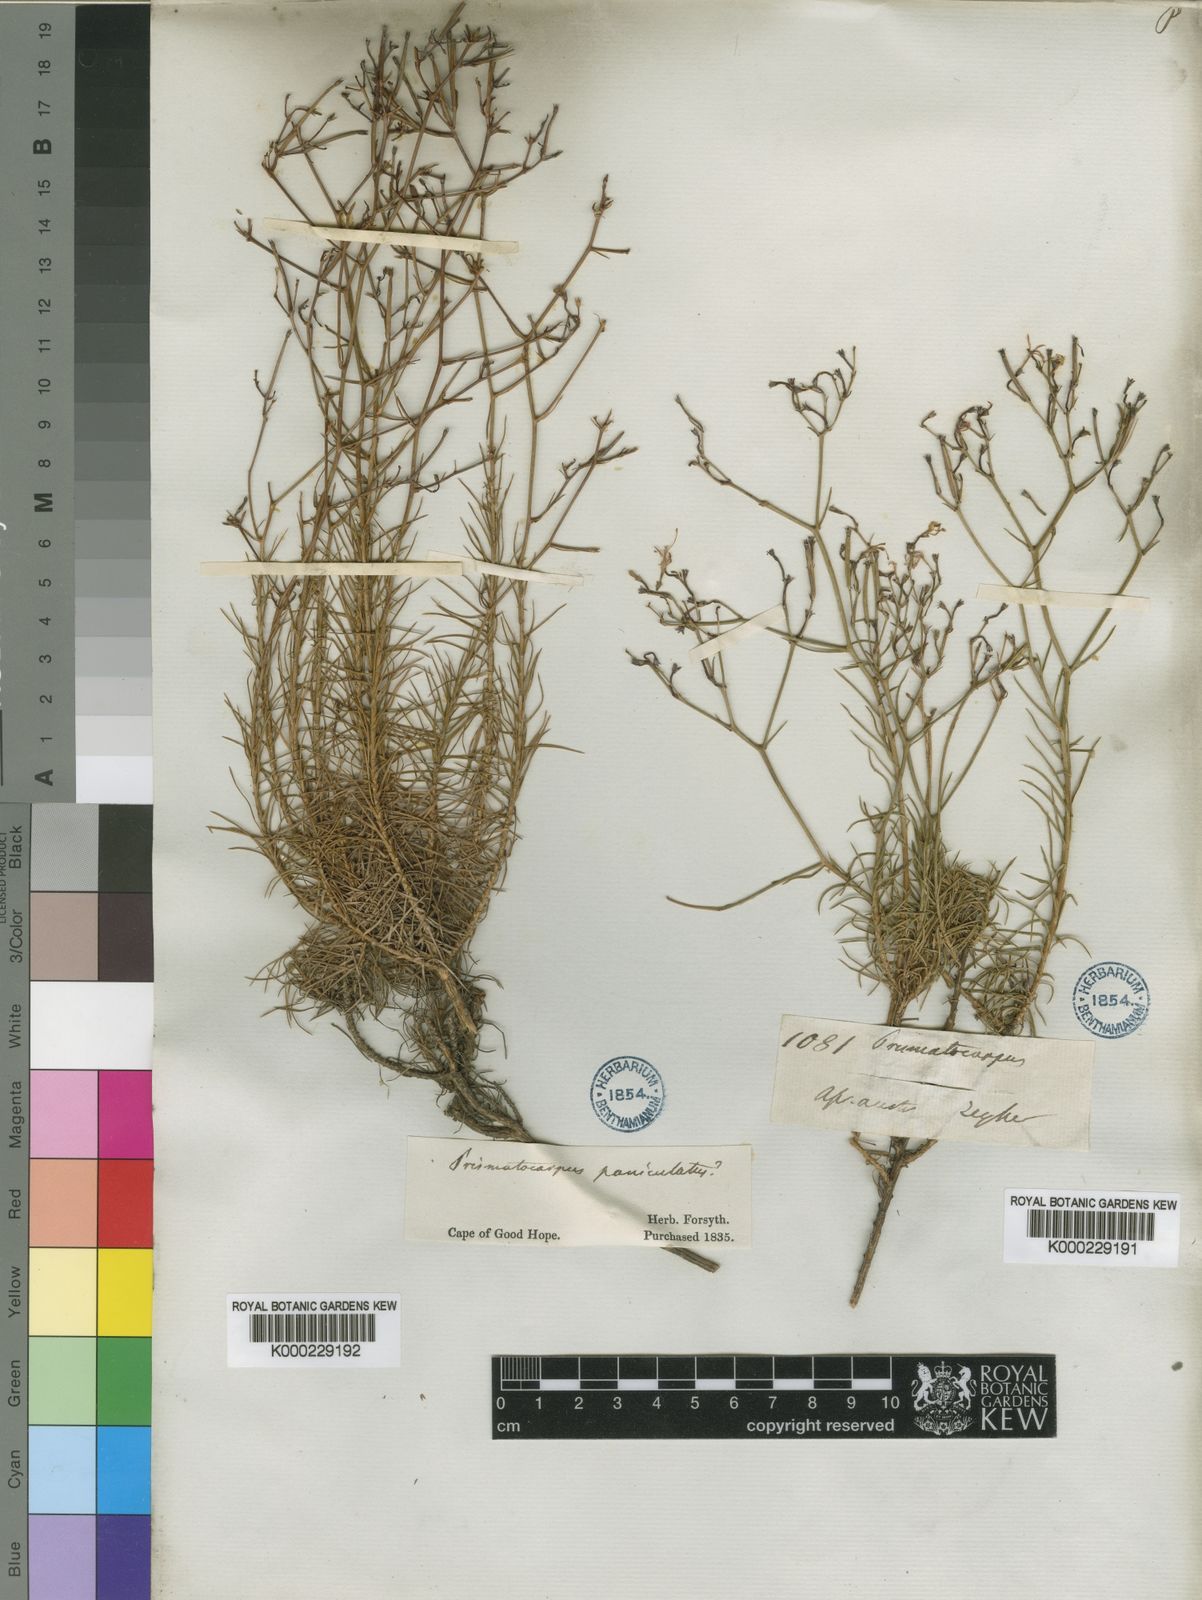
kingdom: Plantae
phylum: Tracheophyta
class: Magnoliopsida
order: Asterales
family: Campanulaceae
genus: Prismatocarpus
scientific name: Prismatocarpus diffusus
